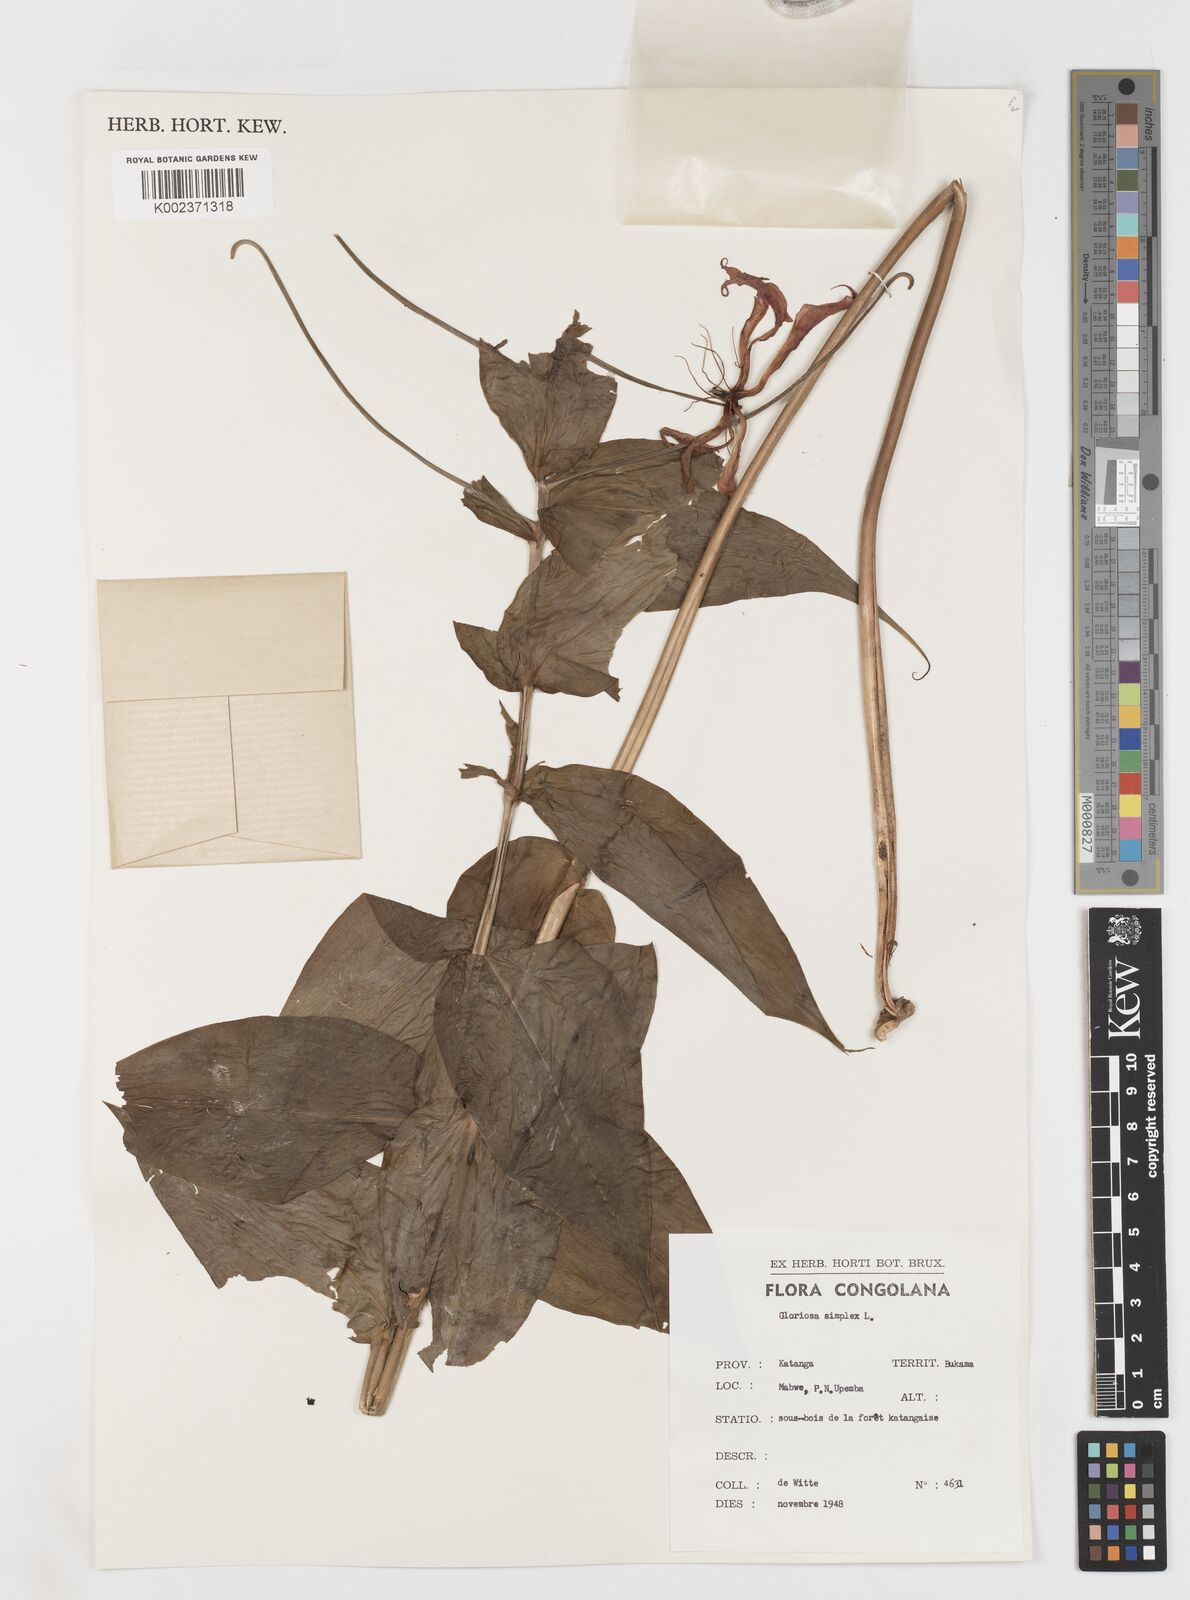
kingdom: Plantae
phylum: Tracheophyta
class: Liliopsida
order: Liliales
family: Colchicaceae
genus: Gloriosa
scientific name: Gloriosa simplex
